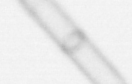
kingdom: Chromista
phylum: Ochrophyta
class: Bacillariophyceae
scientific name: Bacillariophyceae
